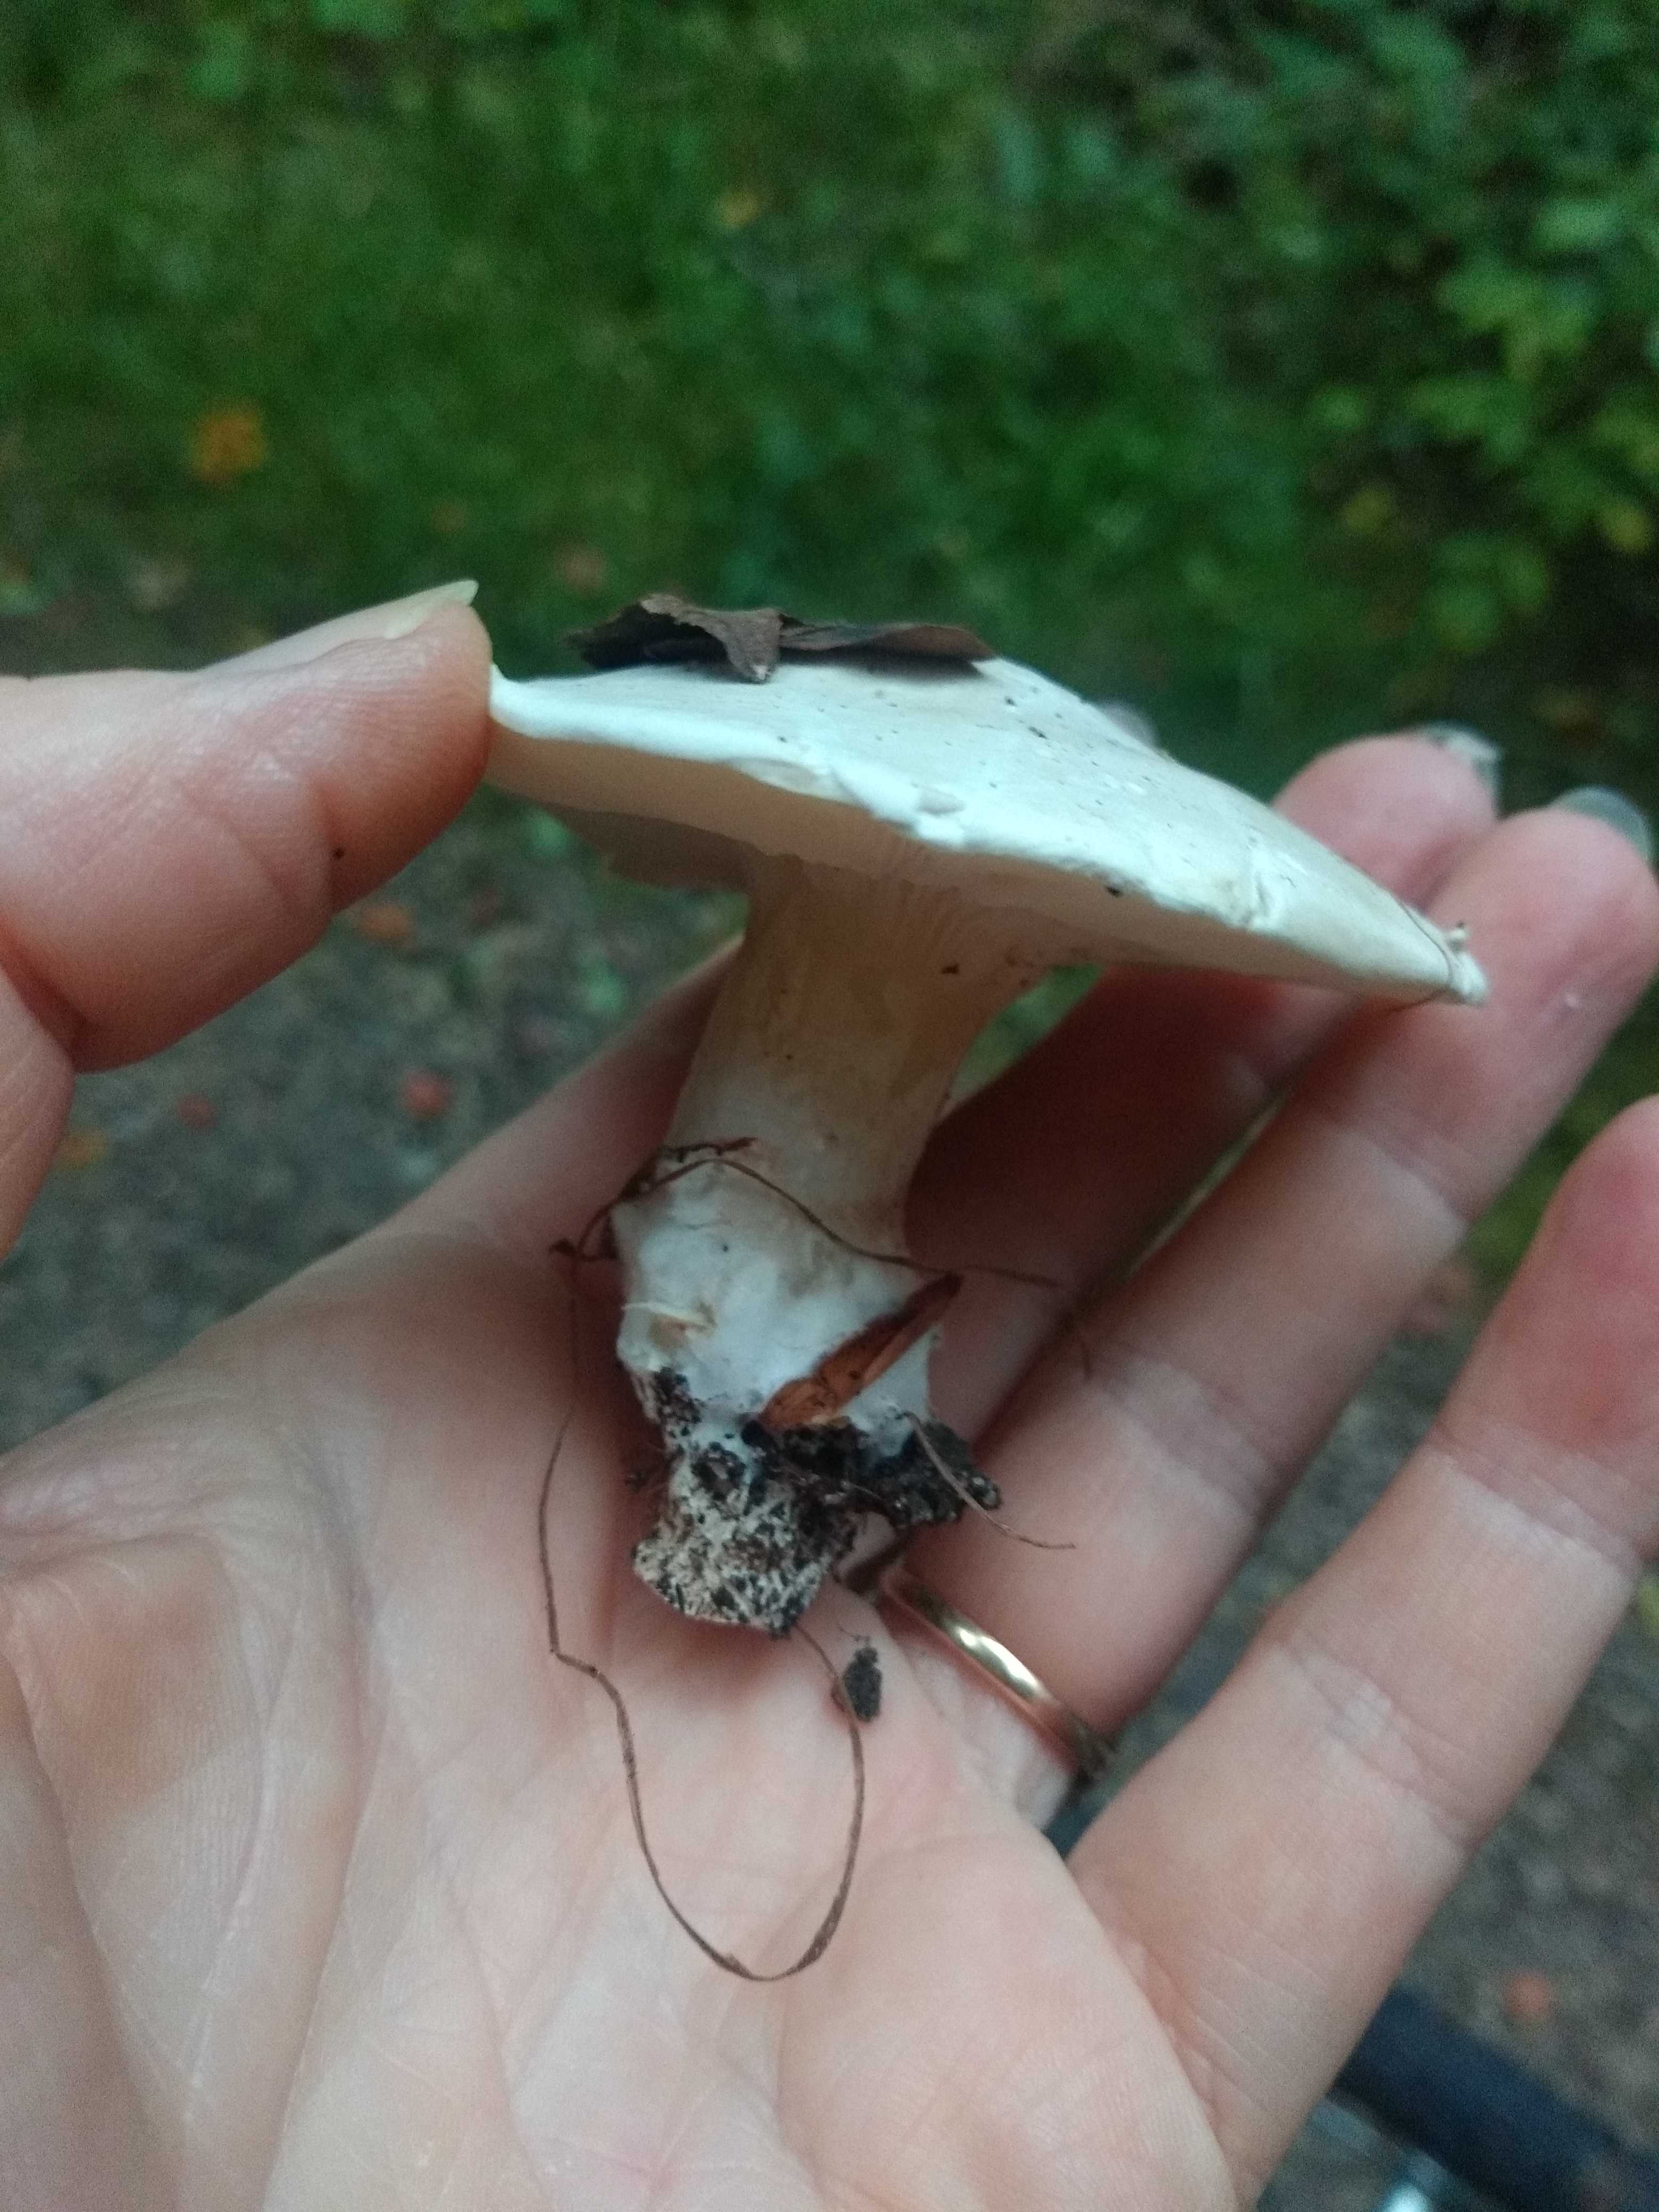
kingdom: Fungi
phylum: Basidiomycota
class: Agaricomycetes
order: Agaricales
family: Entolomataceae
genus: Clitopilus
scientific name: Clitopilus prunulus
